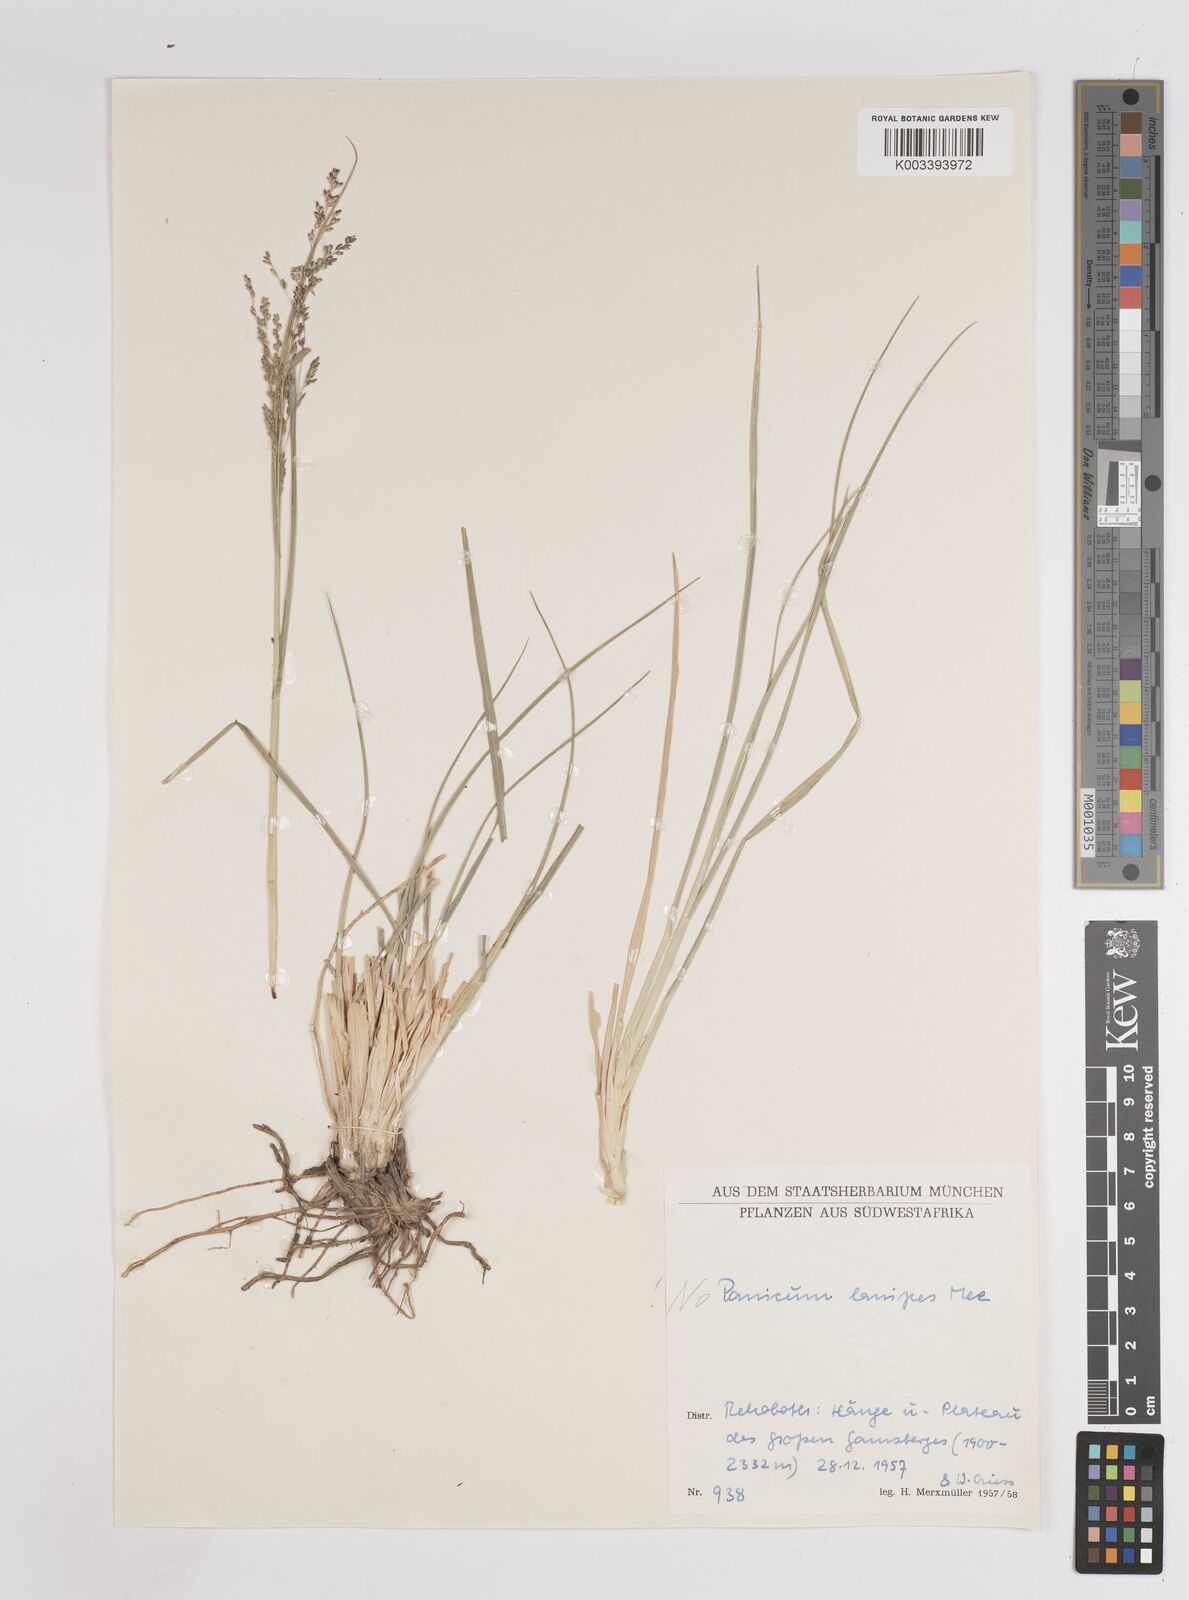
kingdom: Plantae
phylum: Tracheophyta
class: Liliopsida
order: Poales
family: Poaceae
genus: Panicum
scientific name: Panicum coloratum
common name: Kleingrass
